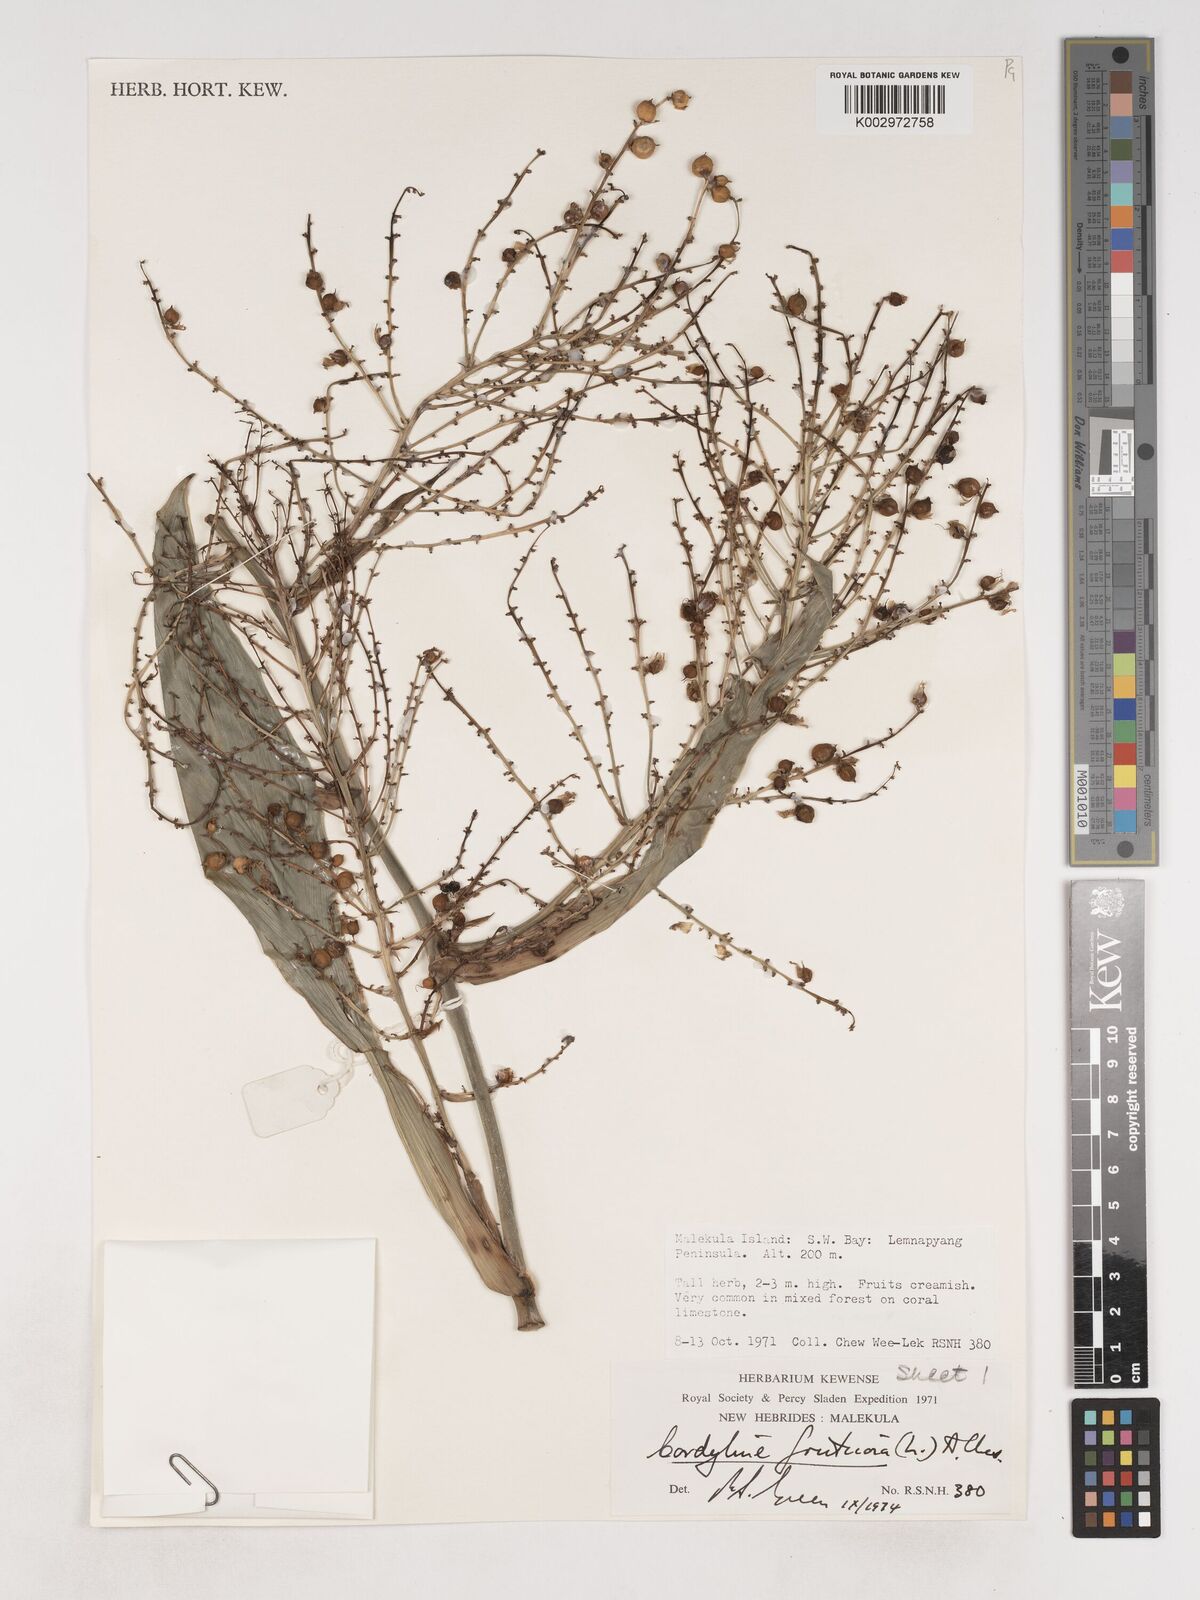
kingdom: Plantae
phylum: Tracheophyta
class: Liliopsida
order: Asparagales
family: Asparagaceae
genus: Cordyline
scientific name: Cordyline fruticosa
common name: Good-luck-plant
